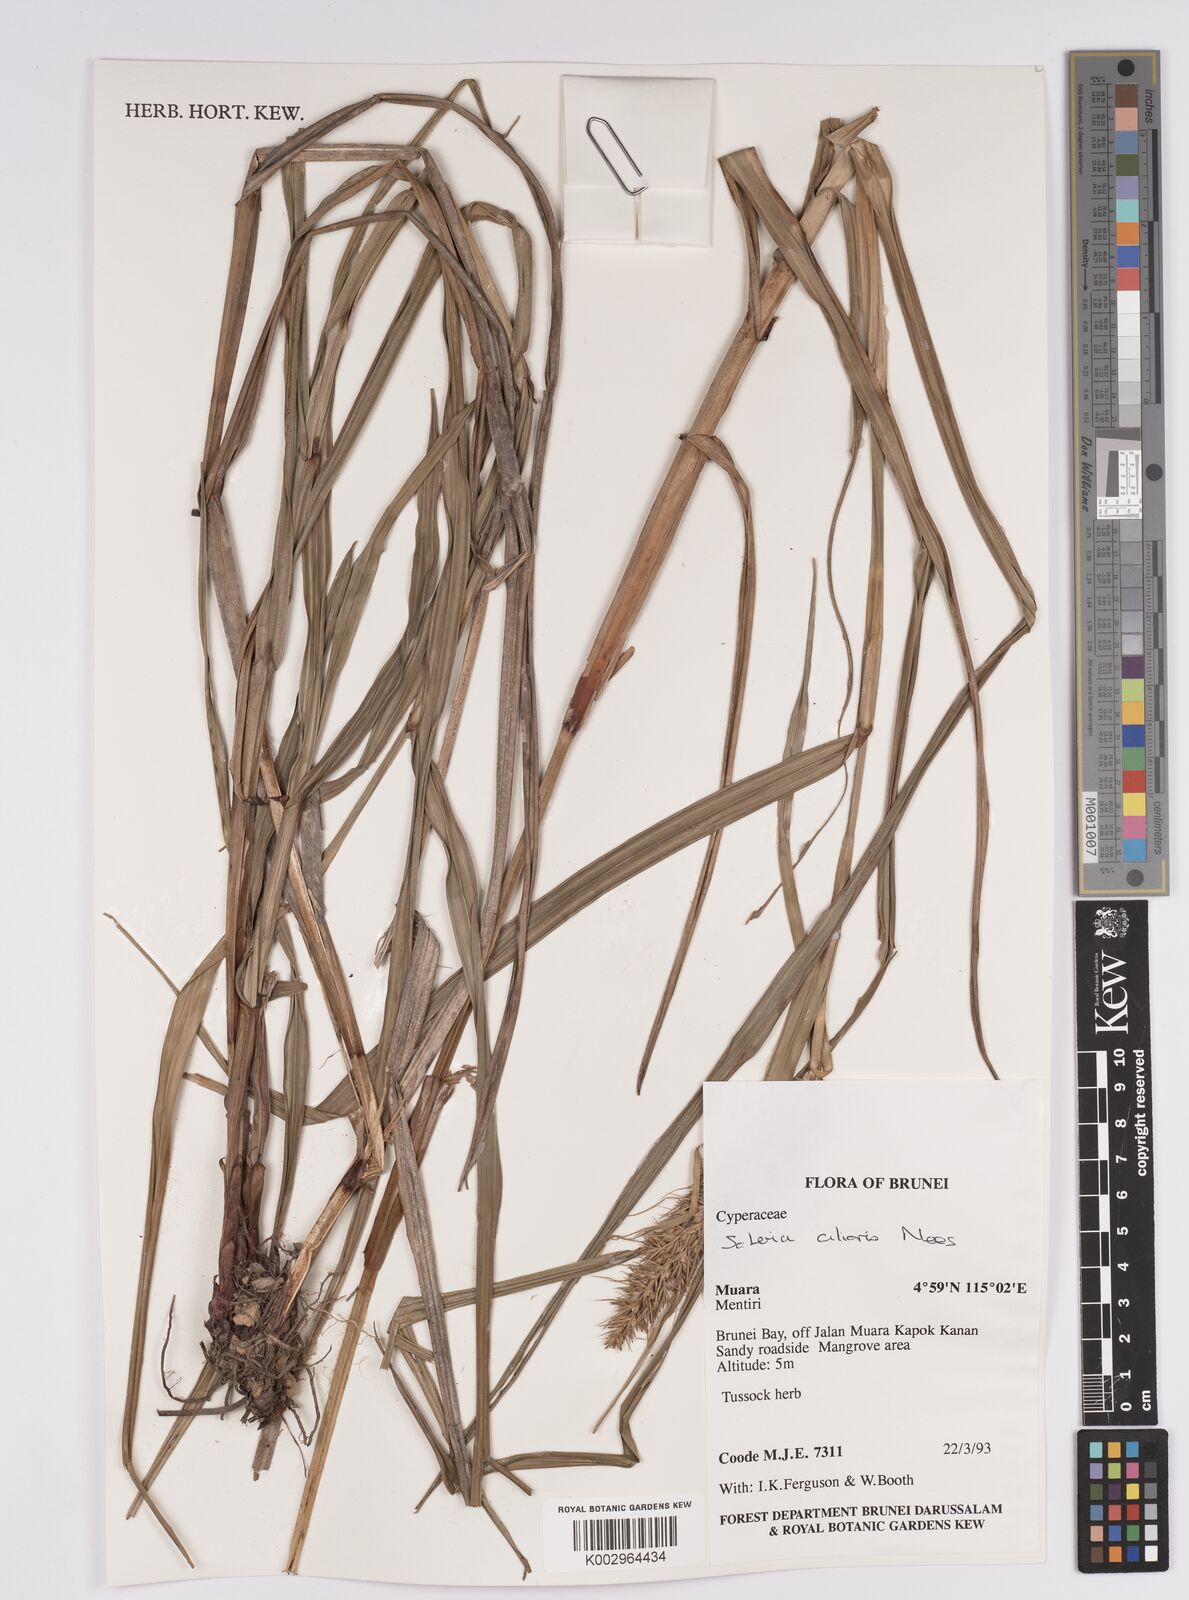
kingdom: Plantae
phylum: Tracheophyta
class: Liliopsida
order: Poales
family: Cyperaceae
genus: Scleria
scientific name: Scleria ciliaris
